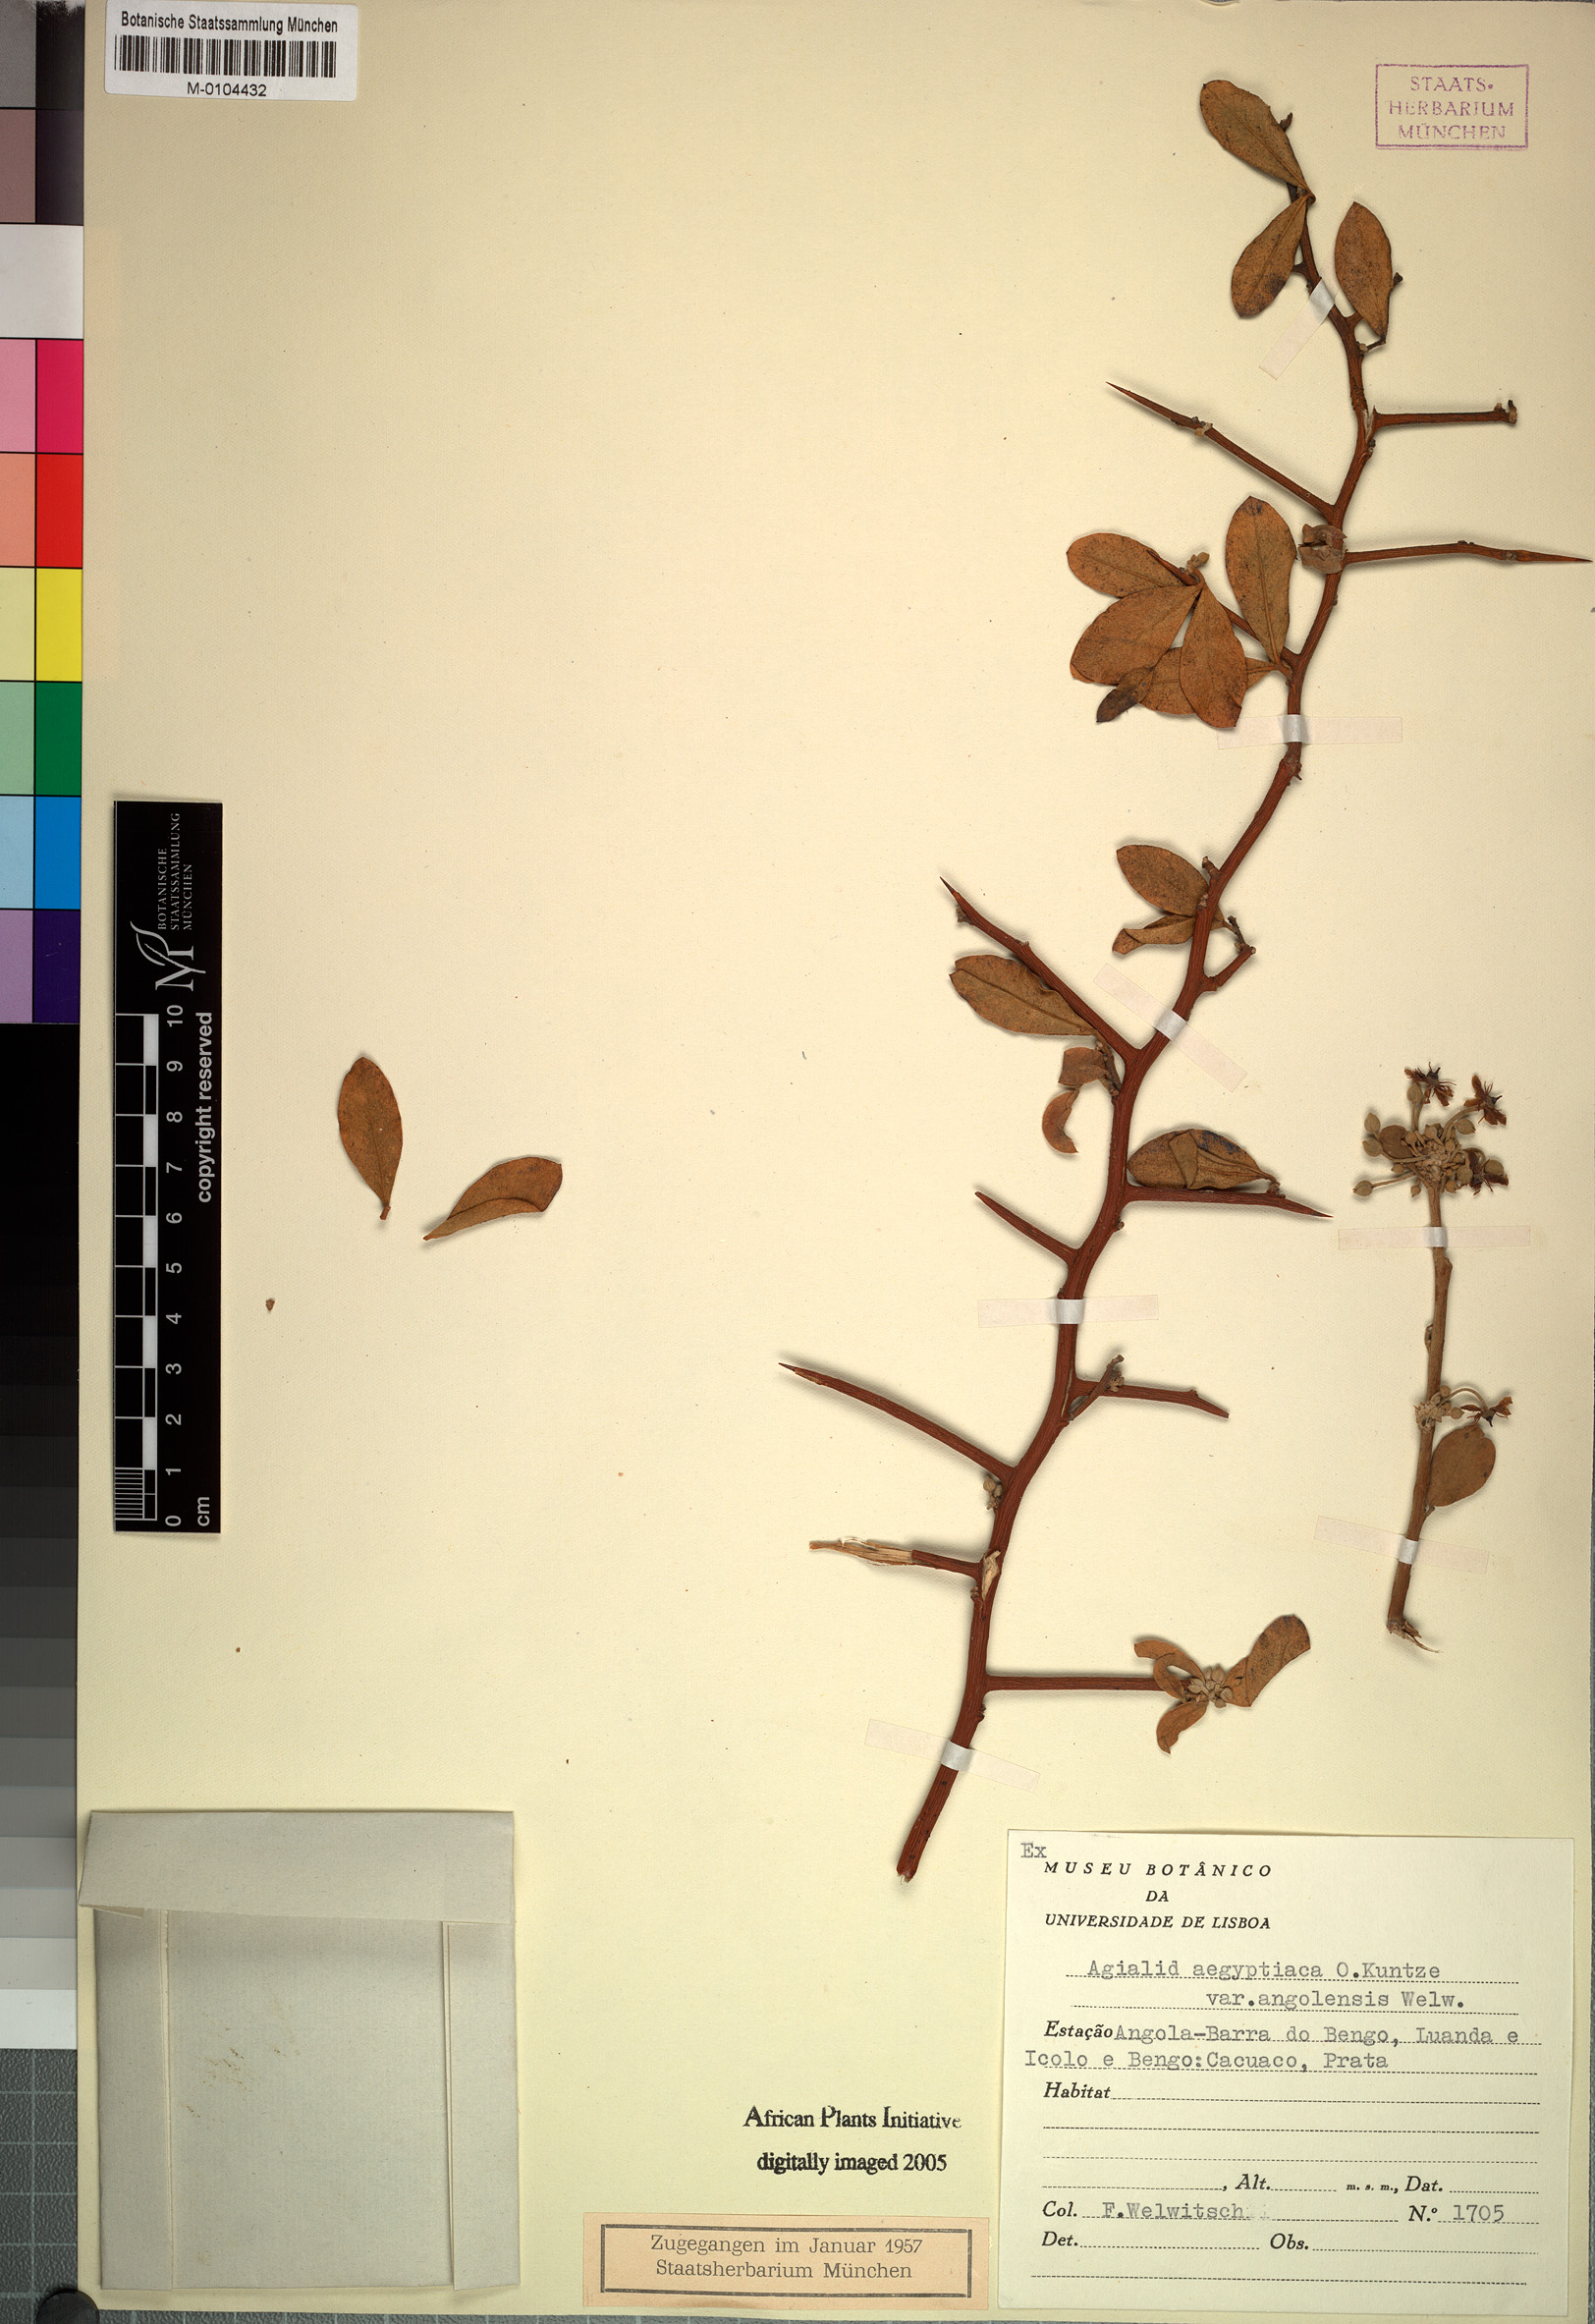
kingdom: Plantae
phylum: Tracheophyta
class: Magnoliopsida
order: Zygophyllales
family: Zygophyllaceae
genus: Balanites
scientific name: Balanites angolensis
